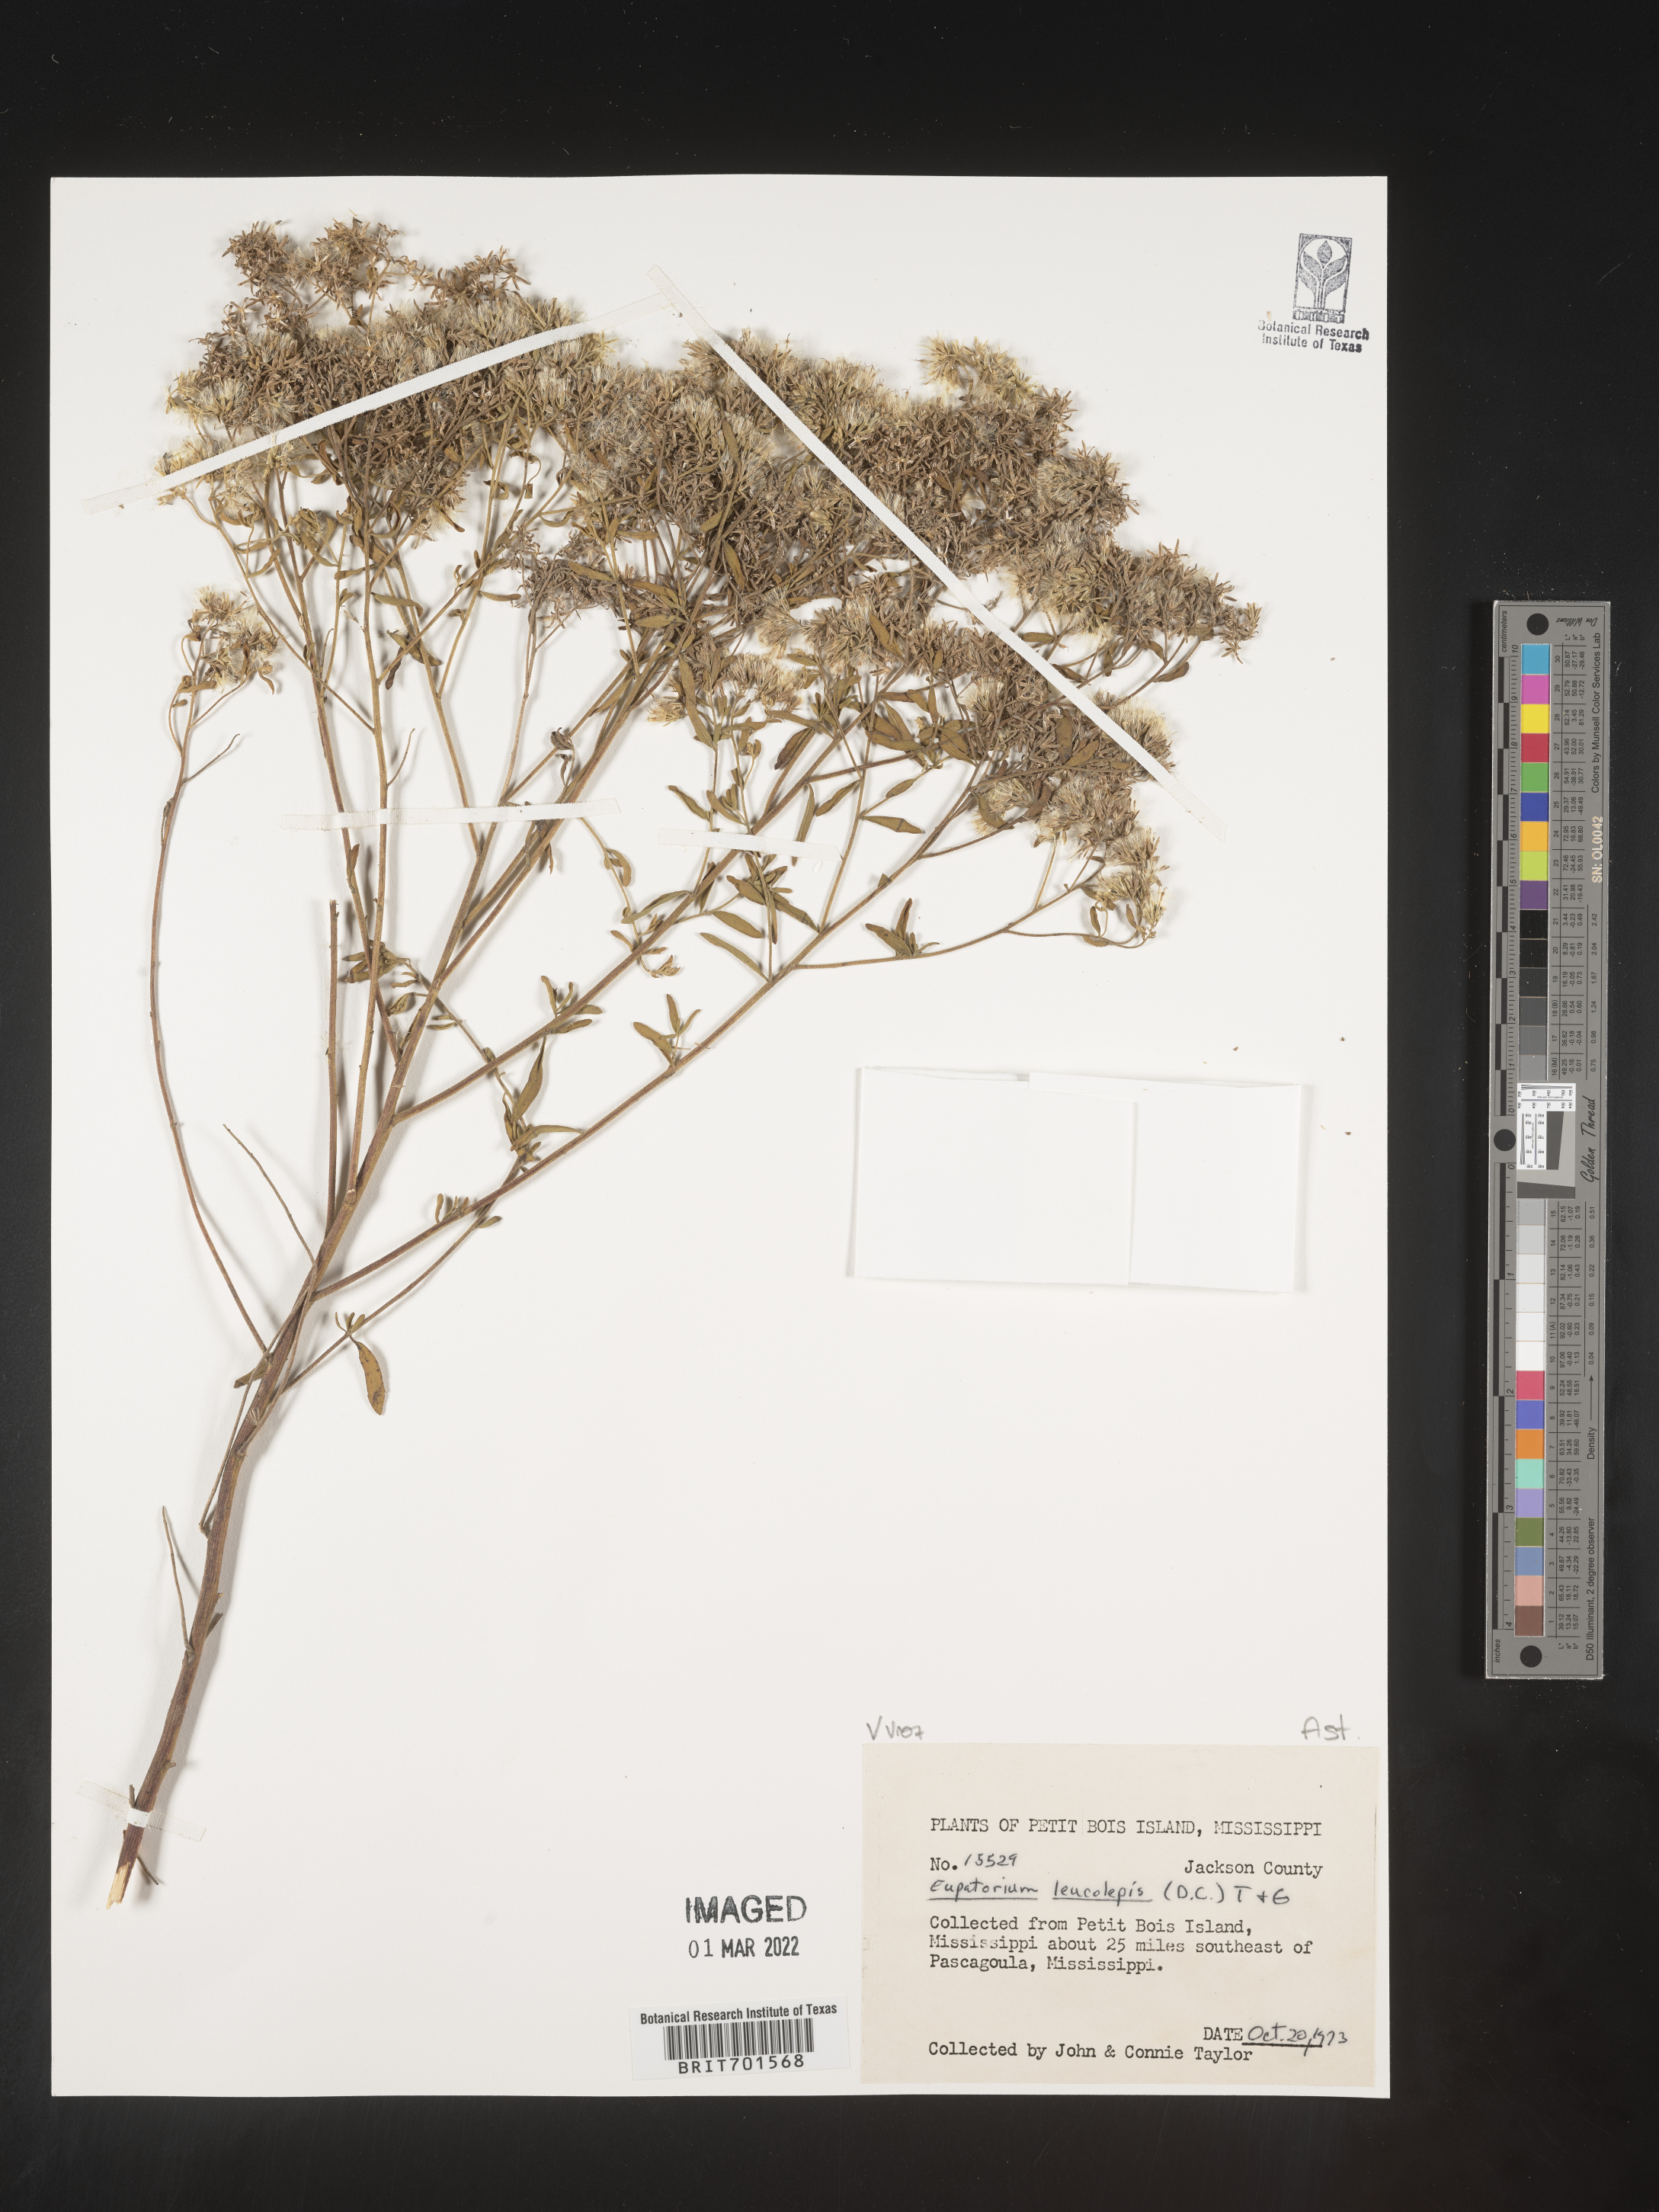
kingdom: Plantae
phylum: Tracheophyta
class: Magnoliopsida
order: Asterales
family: Asteraceae
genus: Eupatorium
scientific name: Eupatorium leucolepis
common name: Justiceweed
